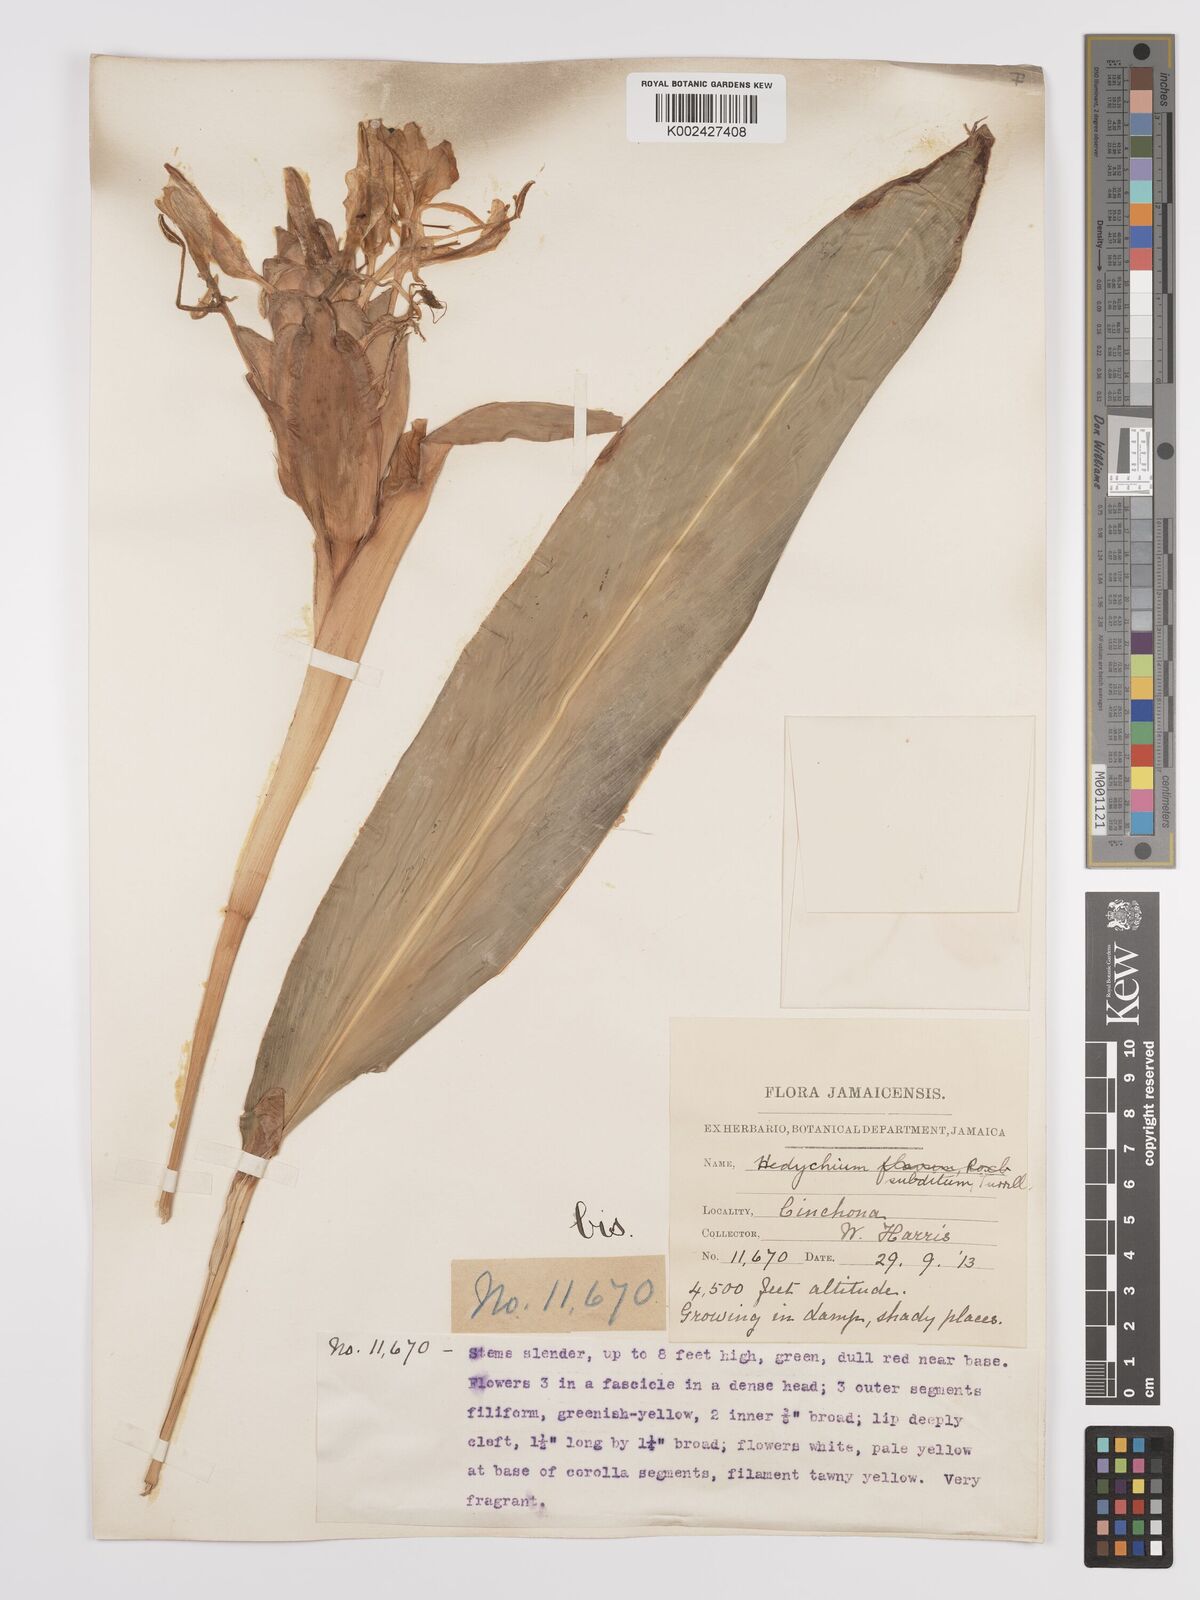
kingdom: Plantae
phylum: Tracheophyta
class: Liliopsida
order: Zingiberales
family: Zingiberaceae
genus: Hedychium
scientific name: Hedychium flavescens
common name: Yellow ginger
